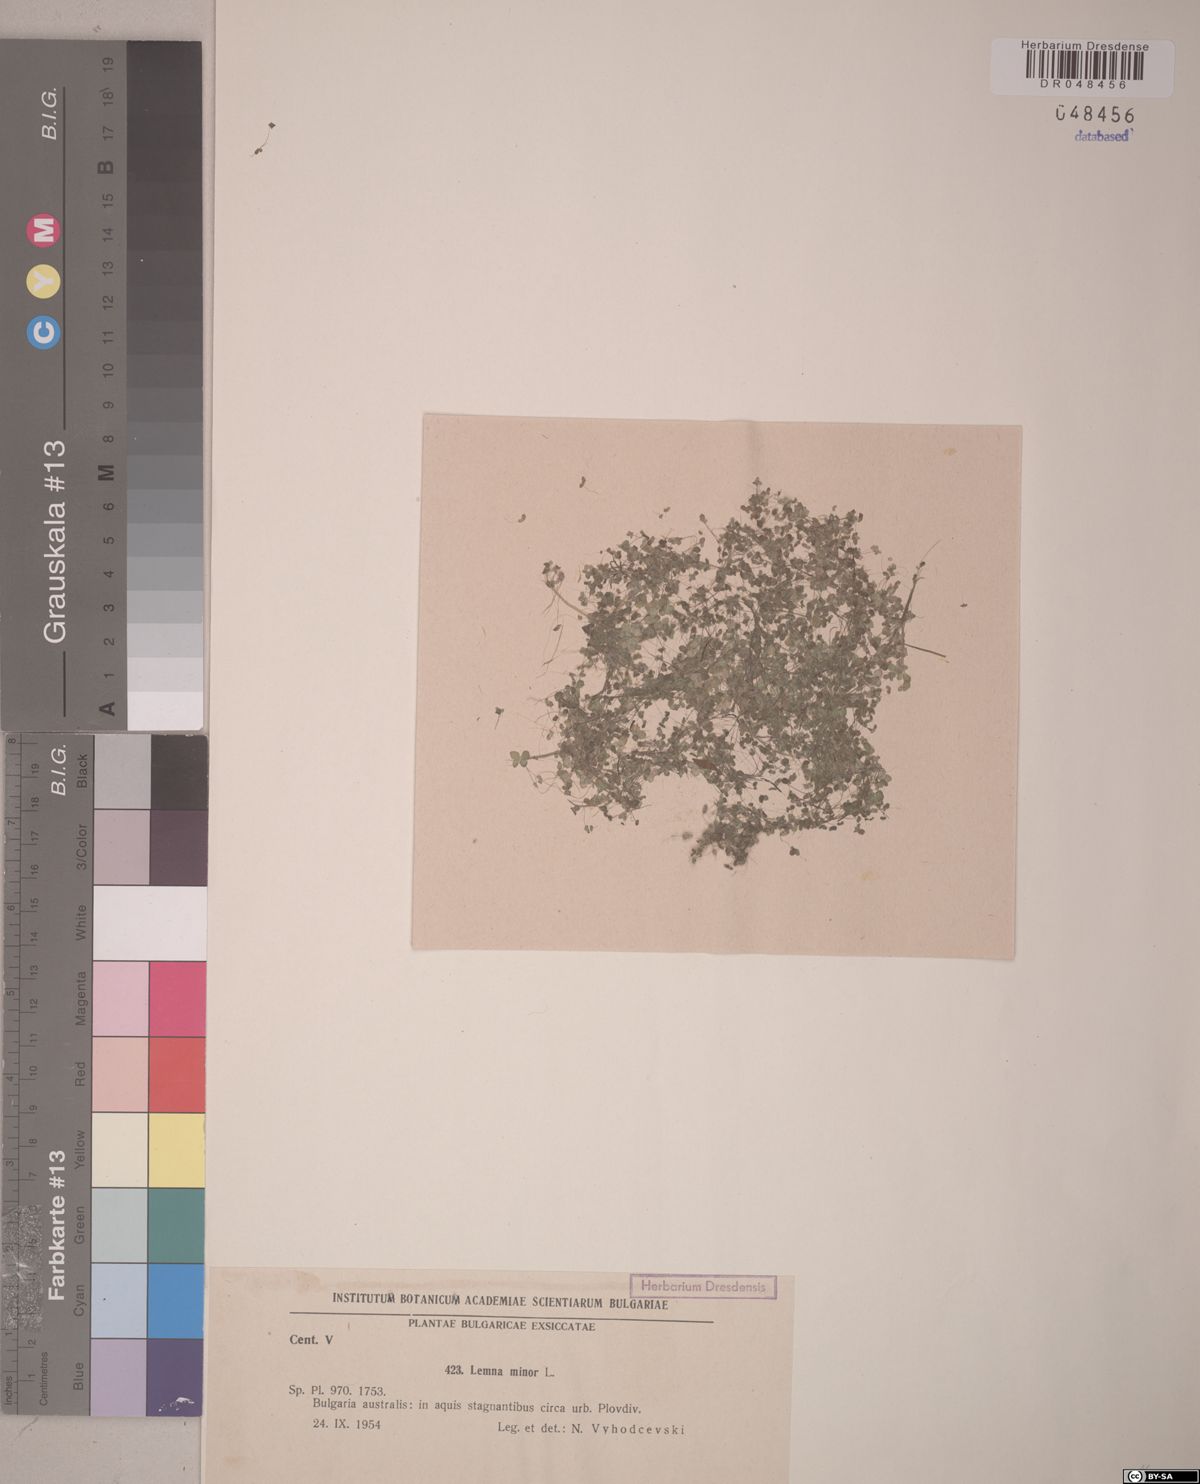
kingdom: Plantae
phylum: Tracheophyta
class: Liliopsida
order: Alismatales
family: Araceae
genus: Lemna
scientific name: Lemna minor
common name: Common duckweed
